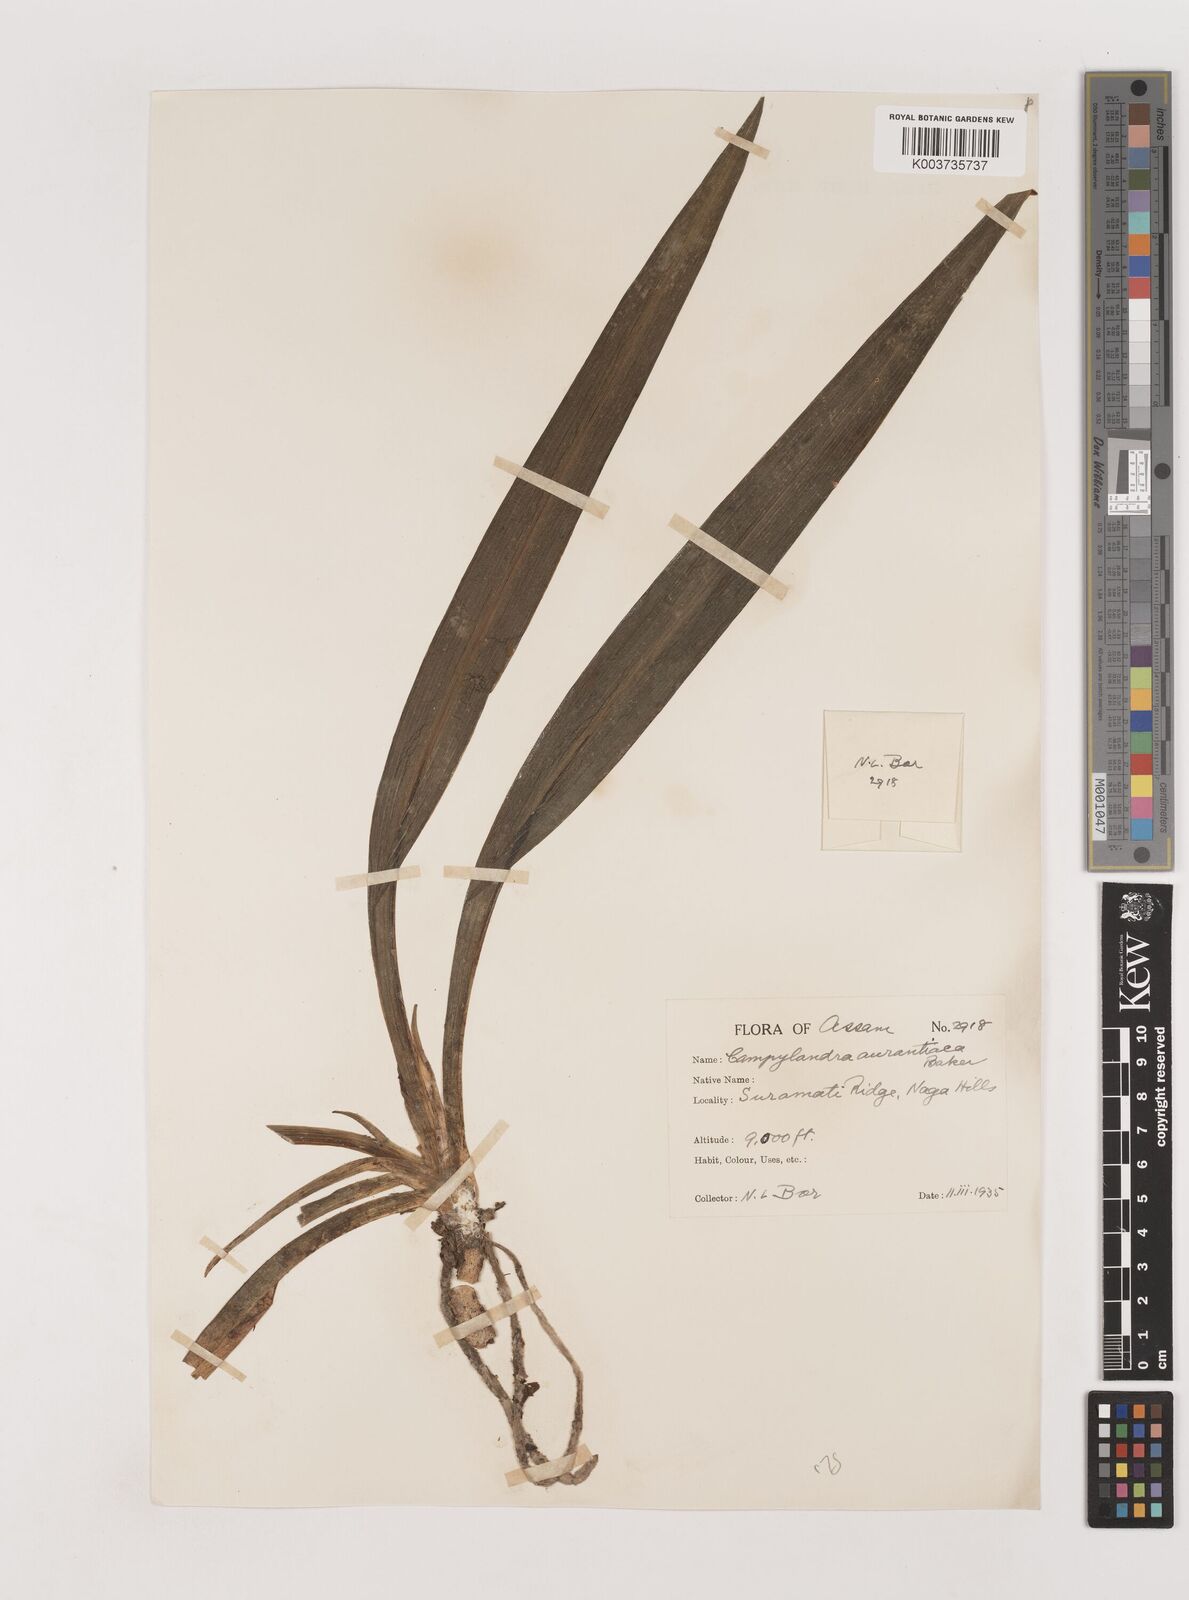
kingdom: Plantae
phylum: Tracheophyta
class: Liliopsida
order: Asparagales
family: Asparagaceae
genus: Rohdea
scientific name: Rohdea nepalensis
